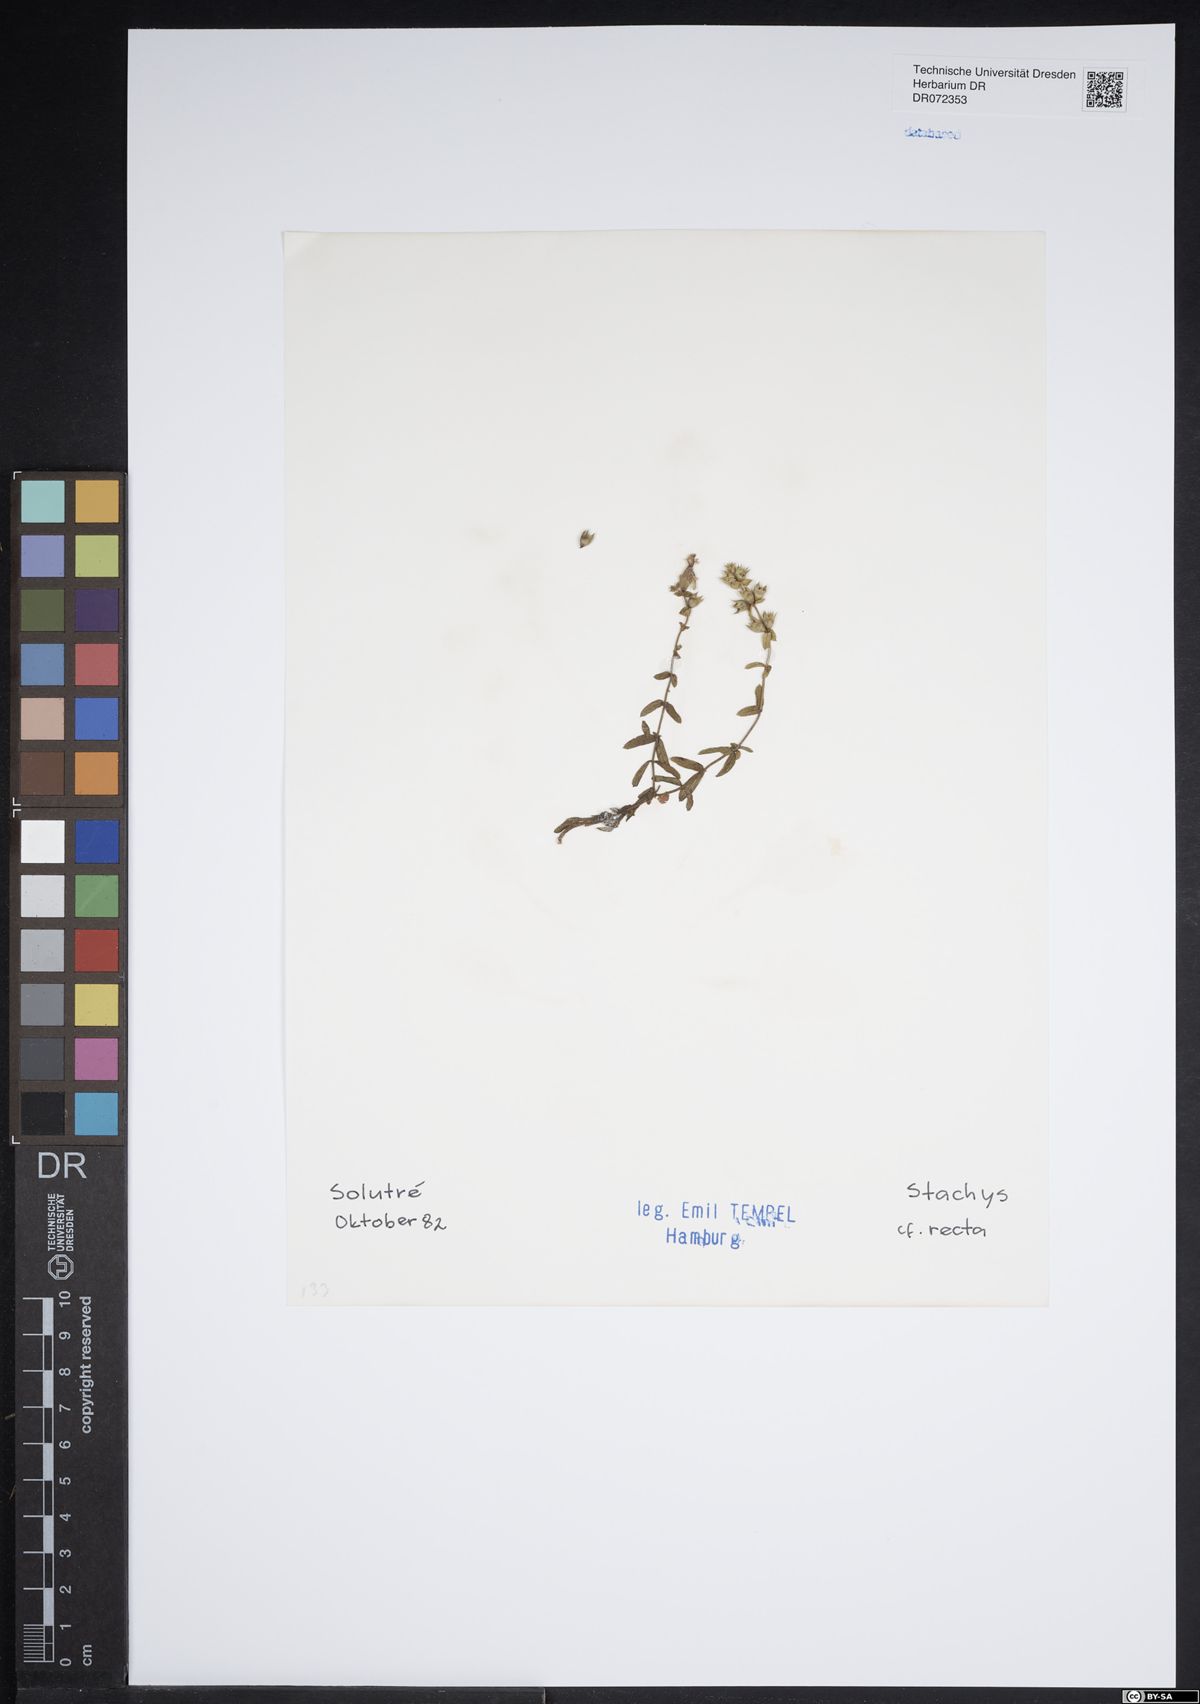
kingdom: Plantae
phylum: Tracheophyta
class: Magnoliopsida
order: Lamiales
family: Lamiaceae
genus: Stachys
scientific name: Stachys recta
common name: Perennial yellow-woundwort
